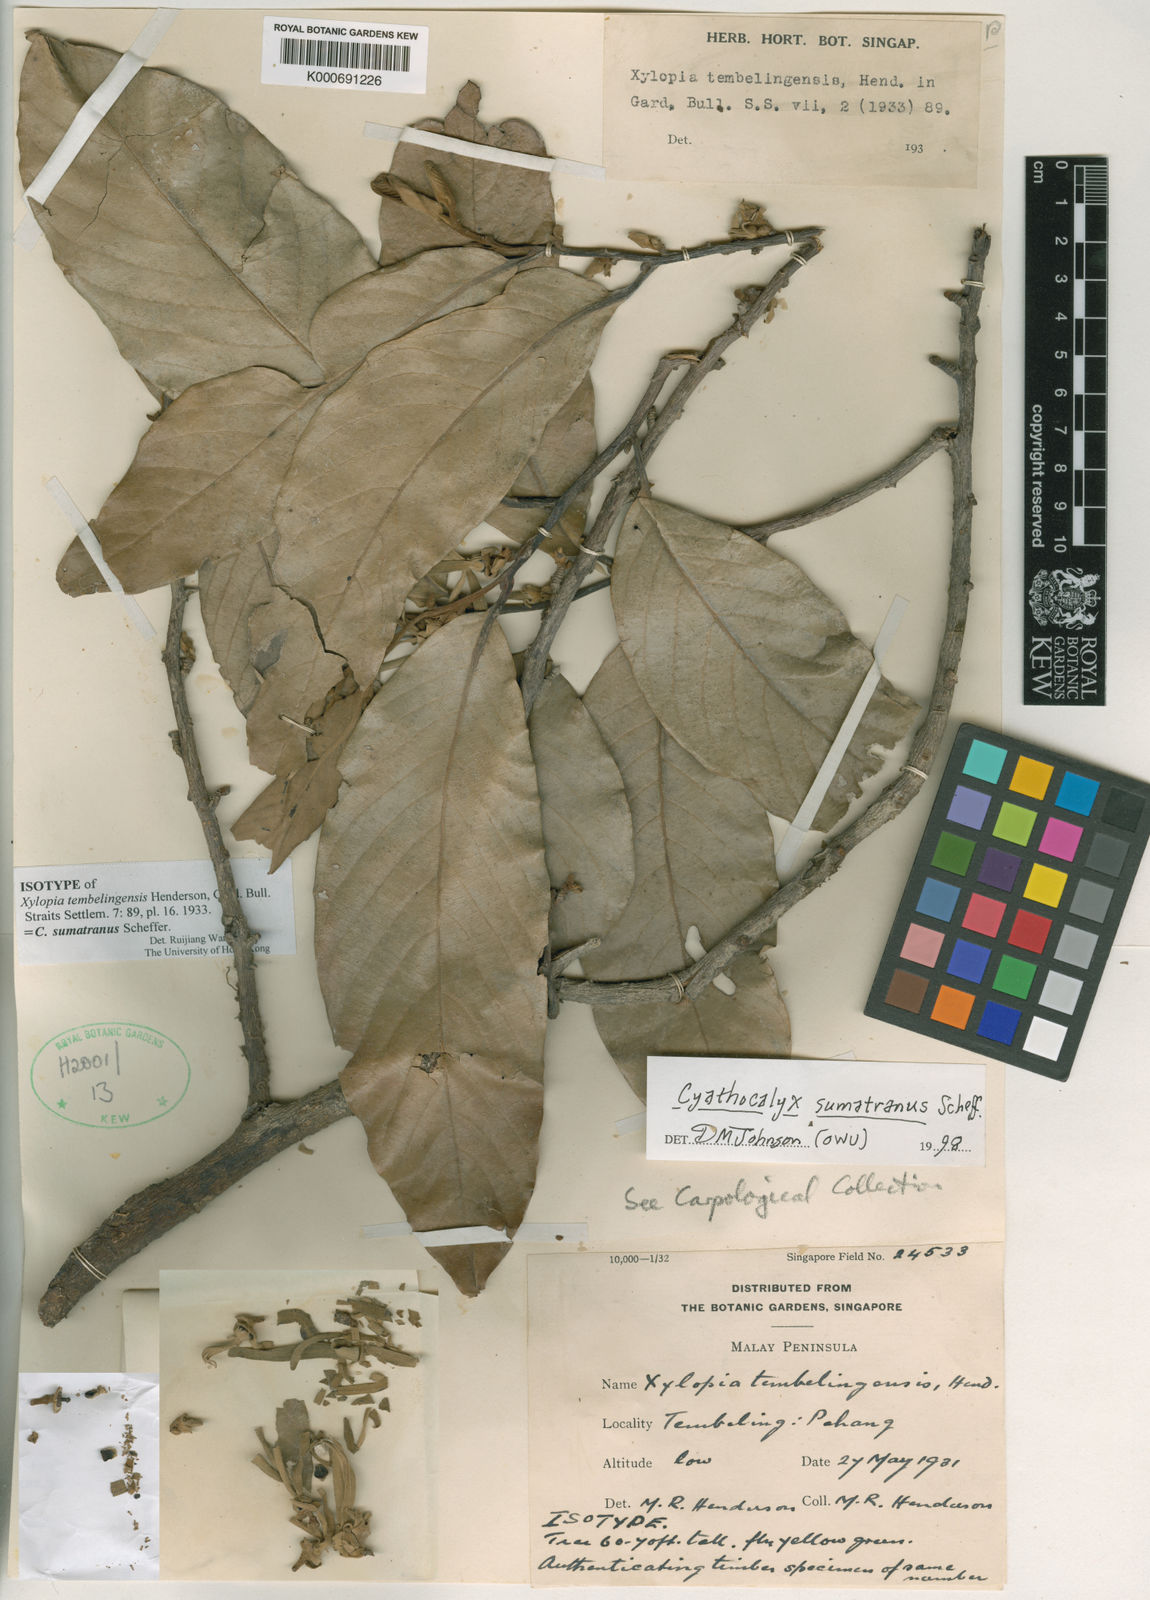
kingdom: Plantae
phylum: Tracheophyta
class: Magnoliopsida
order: Magnoliales
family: Annonaceae
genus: Cyathocalyx
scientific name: Cyathocalyx sumatranus
